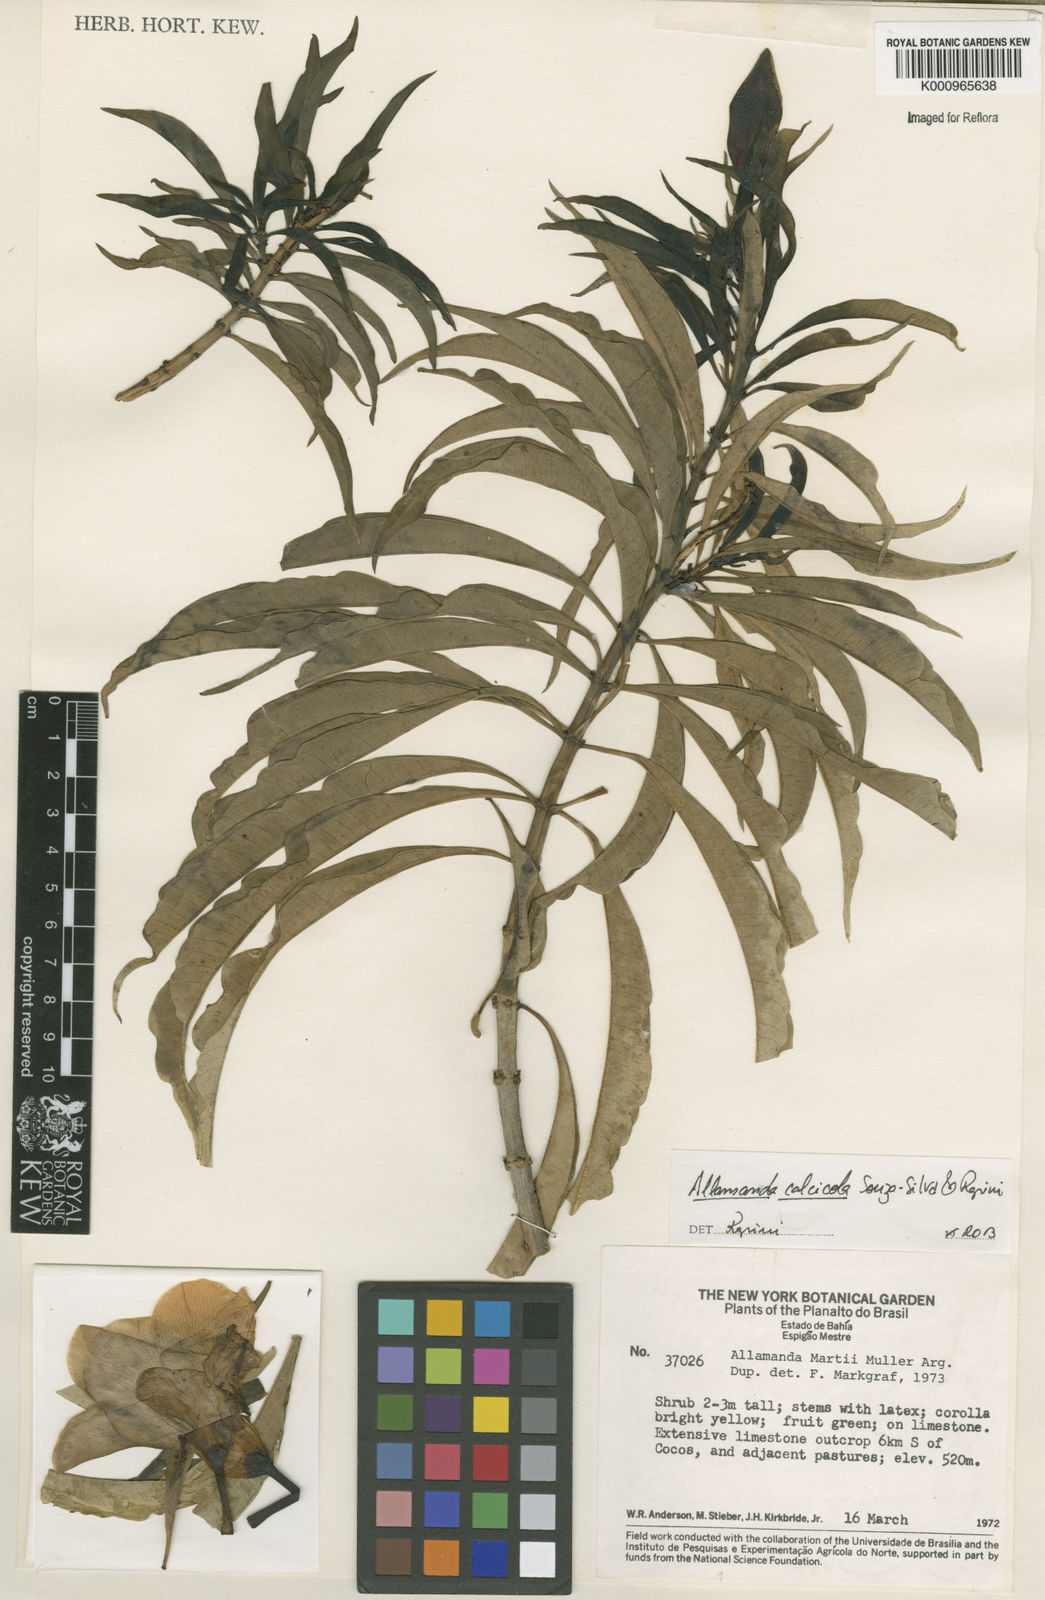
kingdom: Plantae
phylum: Tracheophyta
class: Magnoliopsida
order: Gentianales
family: Apocynaceae
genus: Allamanda
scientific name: Allamanda calcicola
